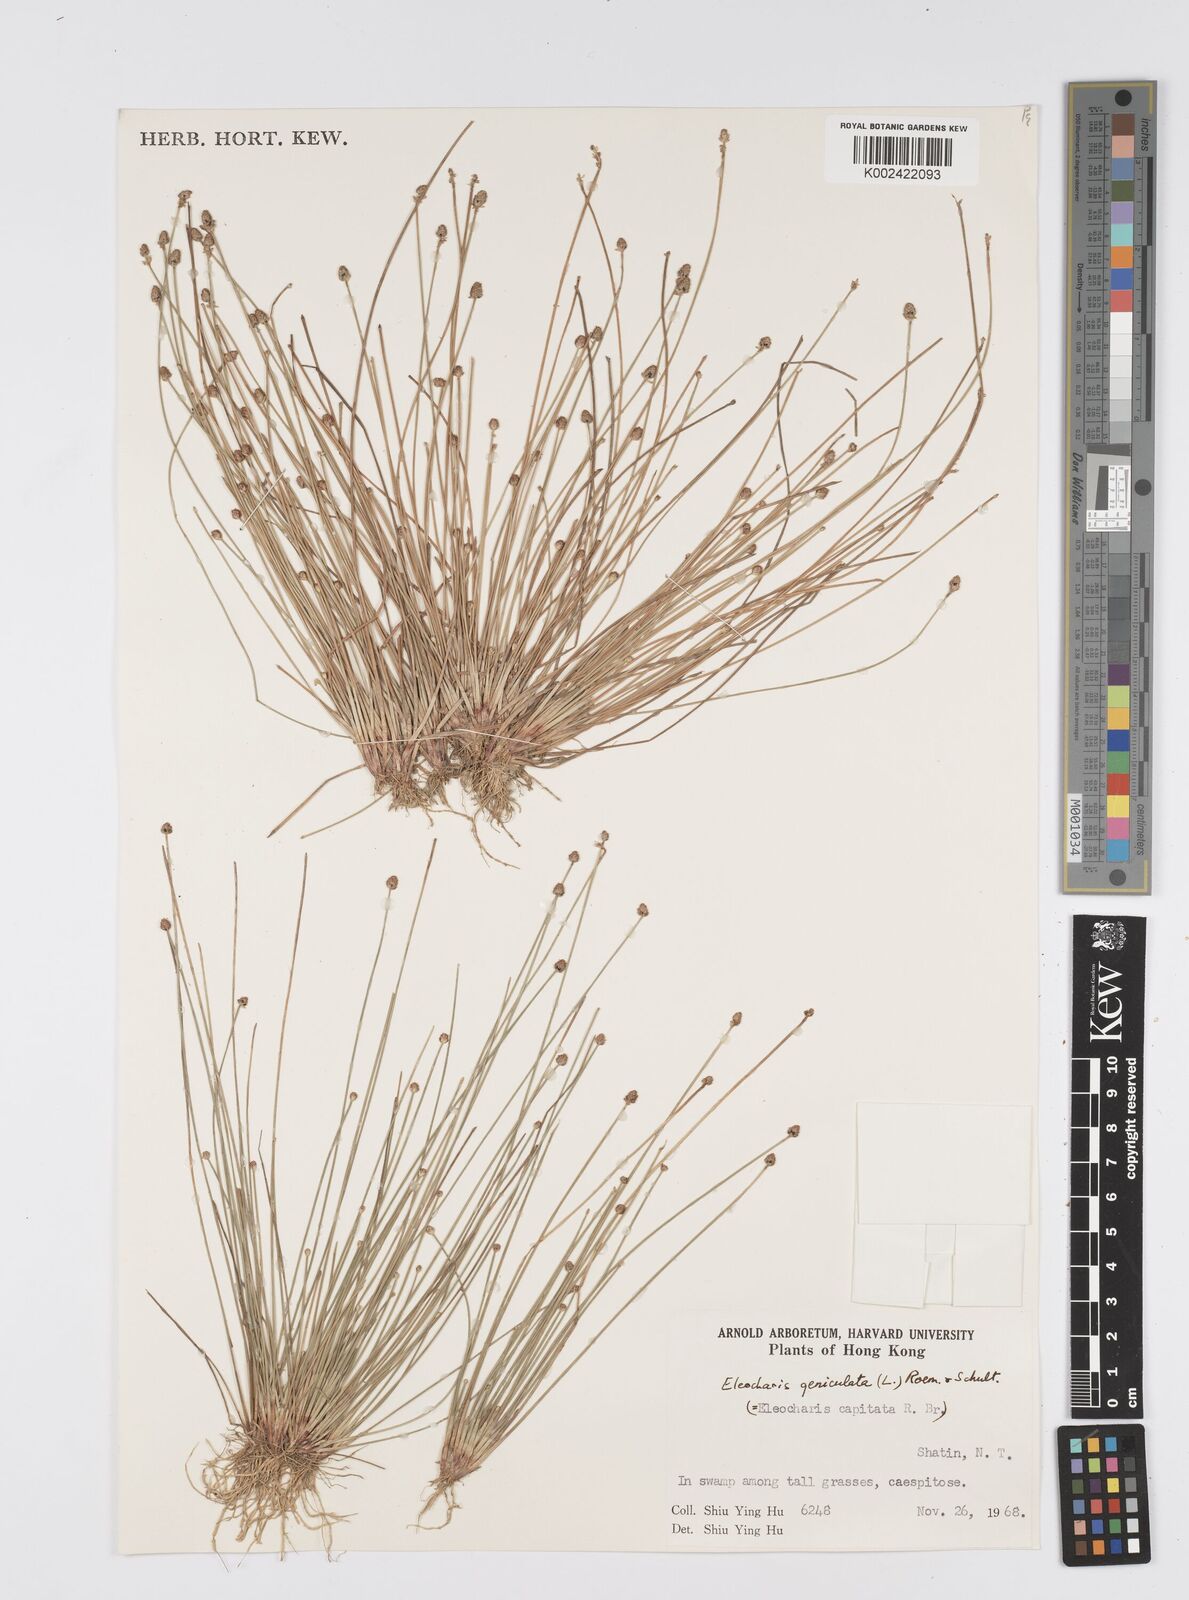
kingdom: Plantae
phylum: Tracheophyta
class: Liliopsida
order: Poales
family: Cyperaceae
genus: Eleocharis
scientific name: Eleocharis geniculata
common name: Canada spikesedge
